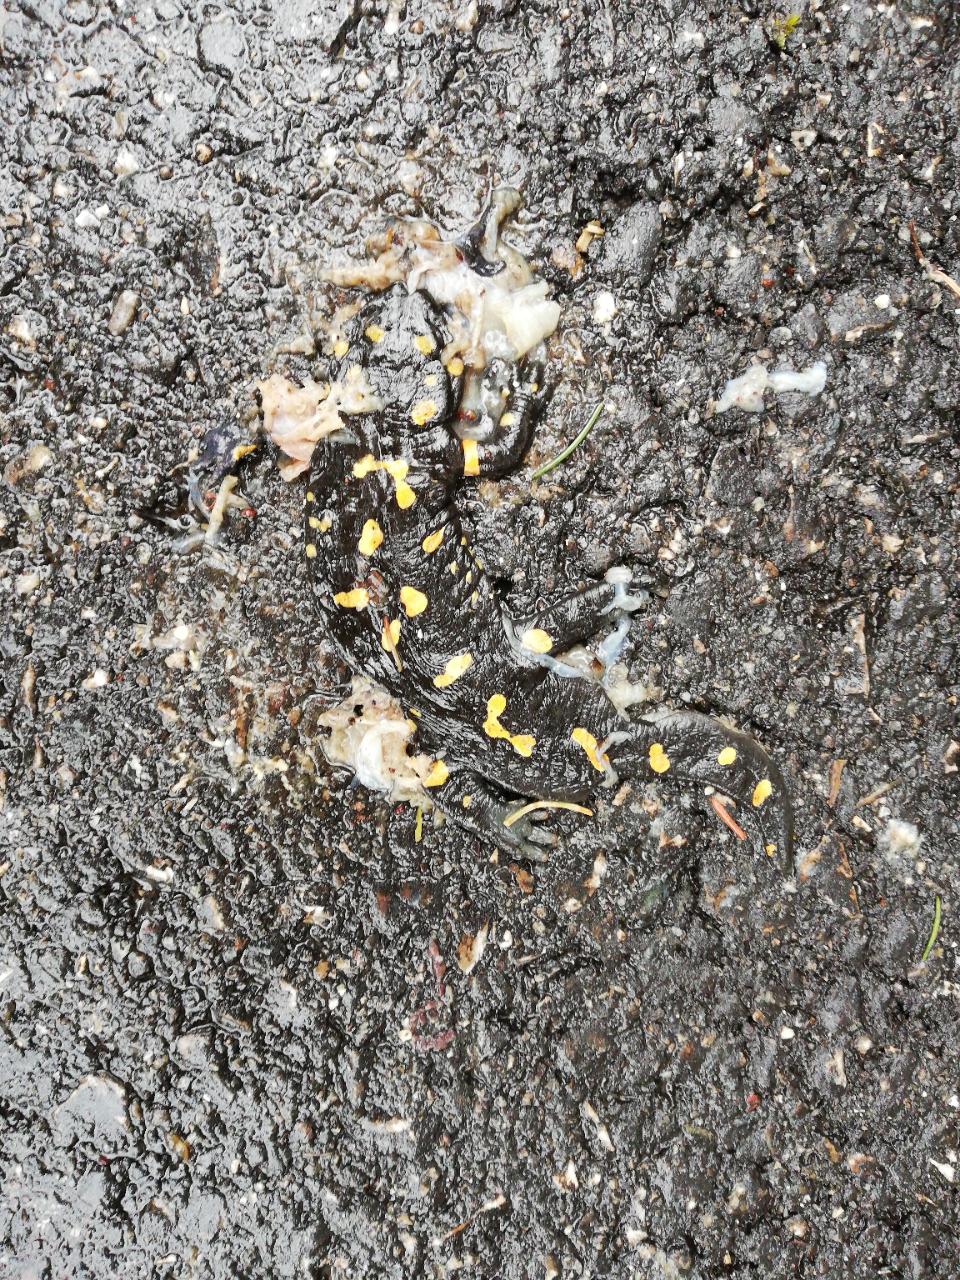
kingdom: Animalia
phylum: Chordata
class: Amphibia
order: Caudata
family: Salamandridae
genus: Salamandra
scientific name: Salamandra salamandra
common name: Fire salamander
